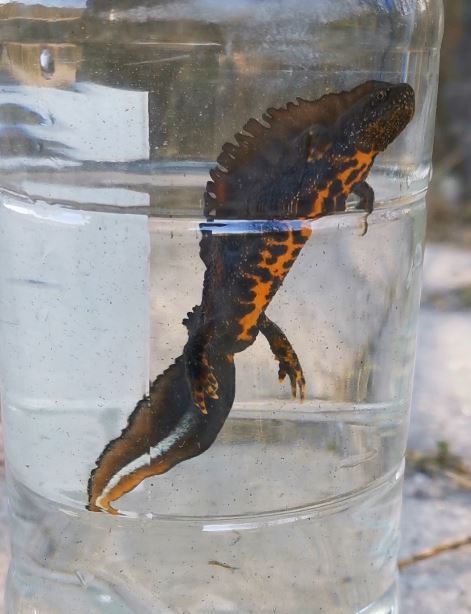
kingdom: Animalia
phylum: Chordata
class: Amphibia
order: Caudata
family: Salamandridae
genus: Triturus
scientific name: Triturus cristatus
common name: Crested newt
